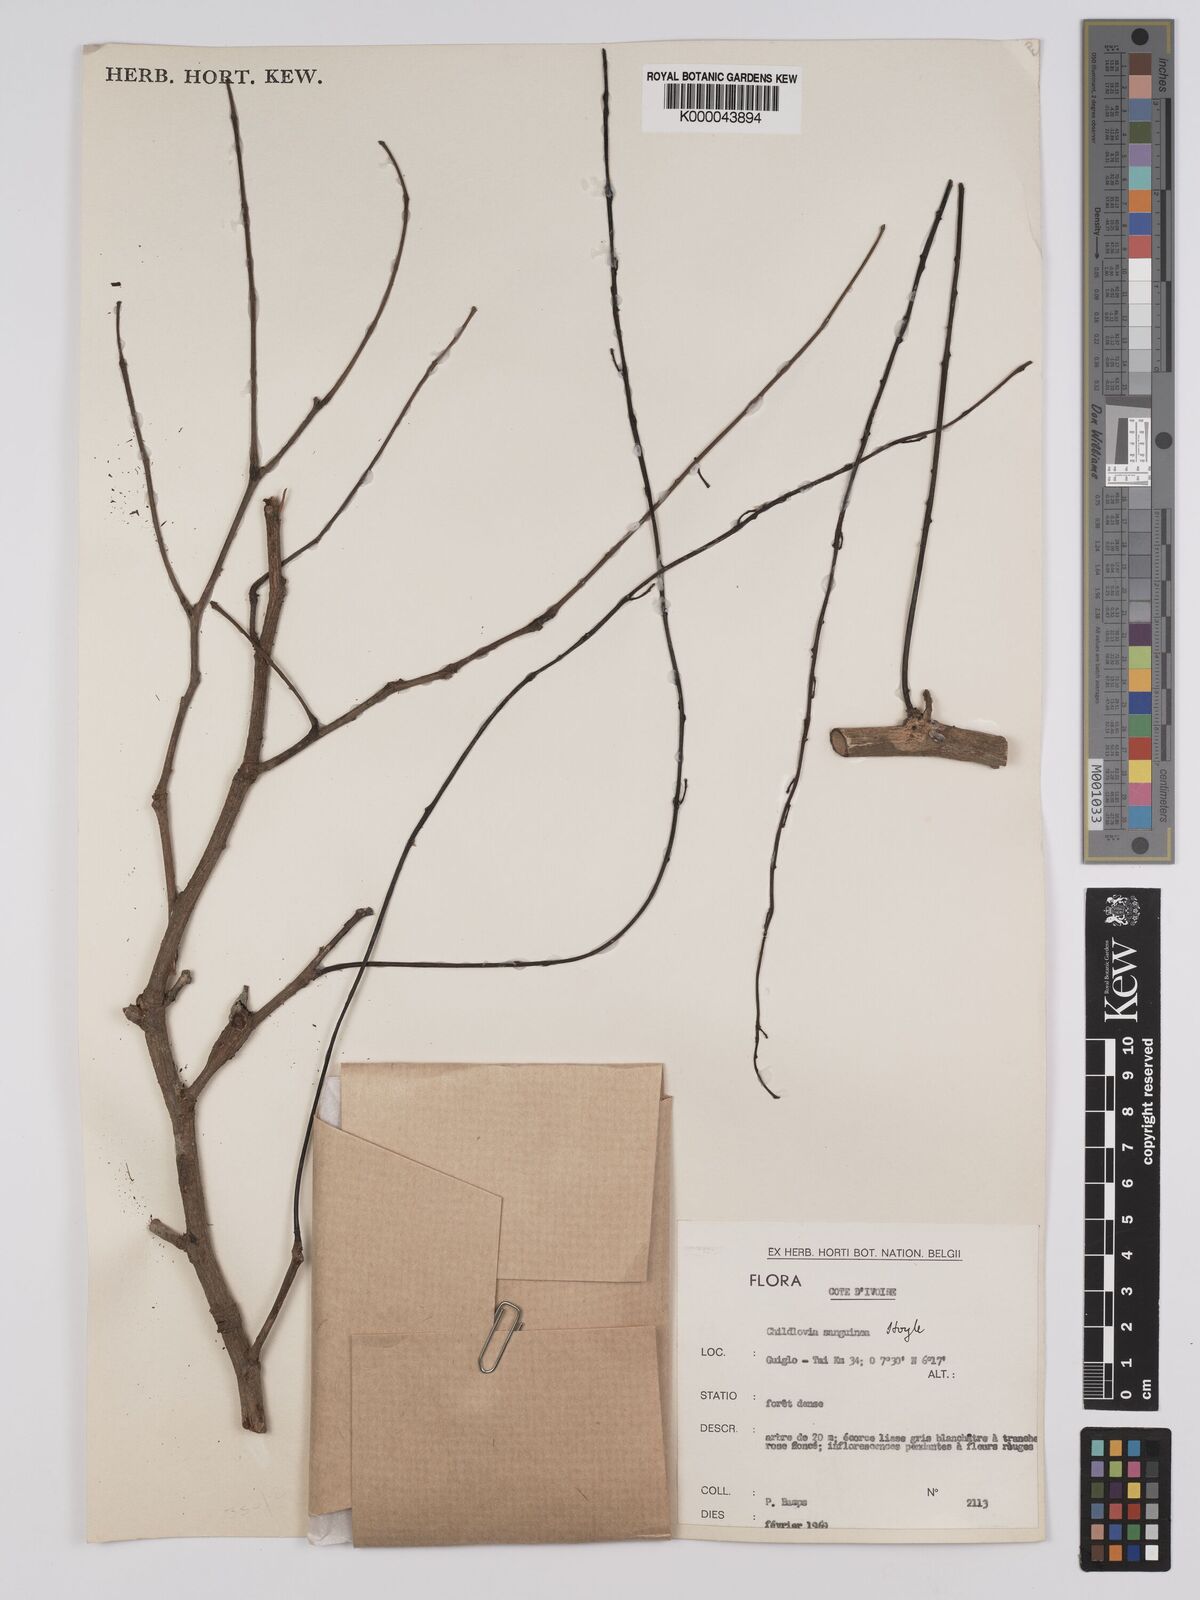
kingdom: Plantae
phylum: Tracheophyta
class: Magnoliopsida
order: Fabales
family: Fabaceae
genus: Chidlowia
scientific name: Chidlowia sanguinea
